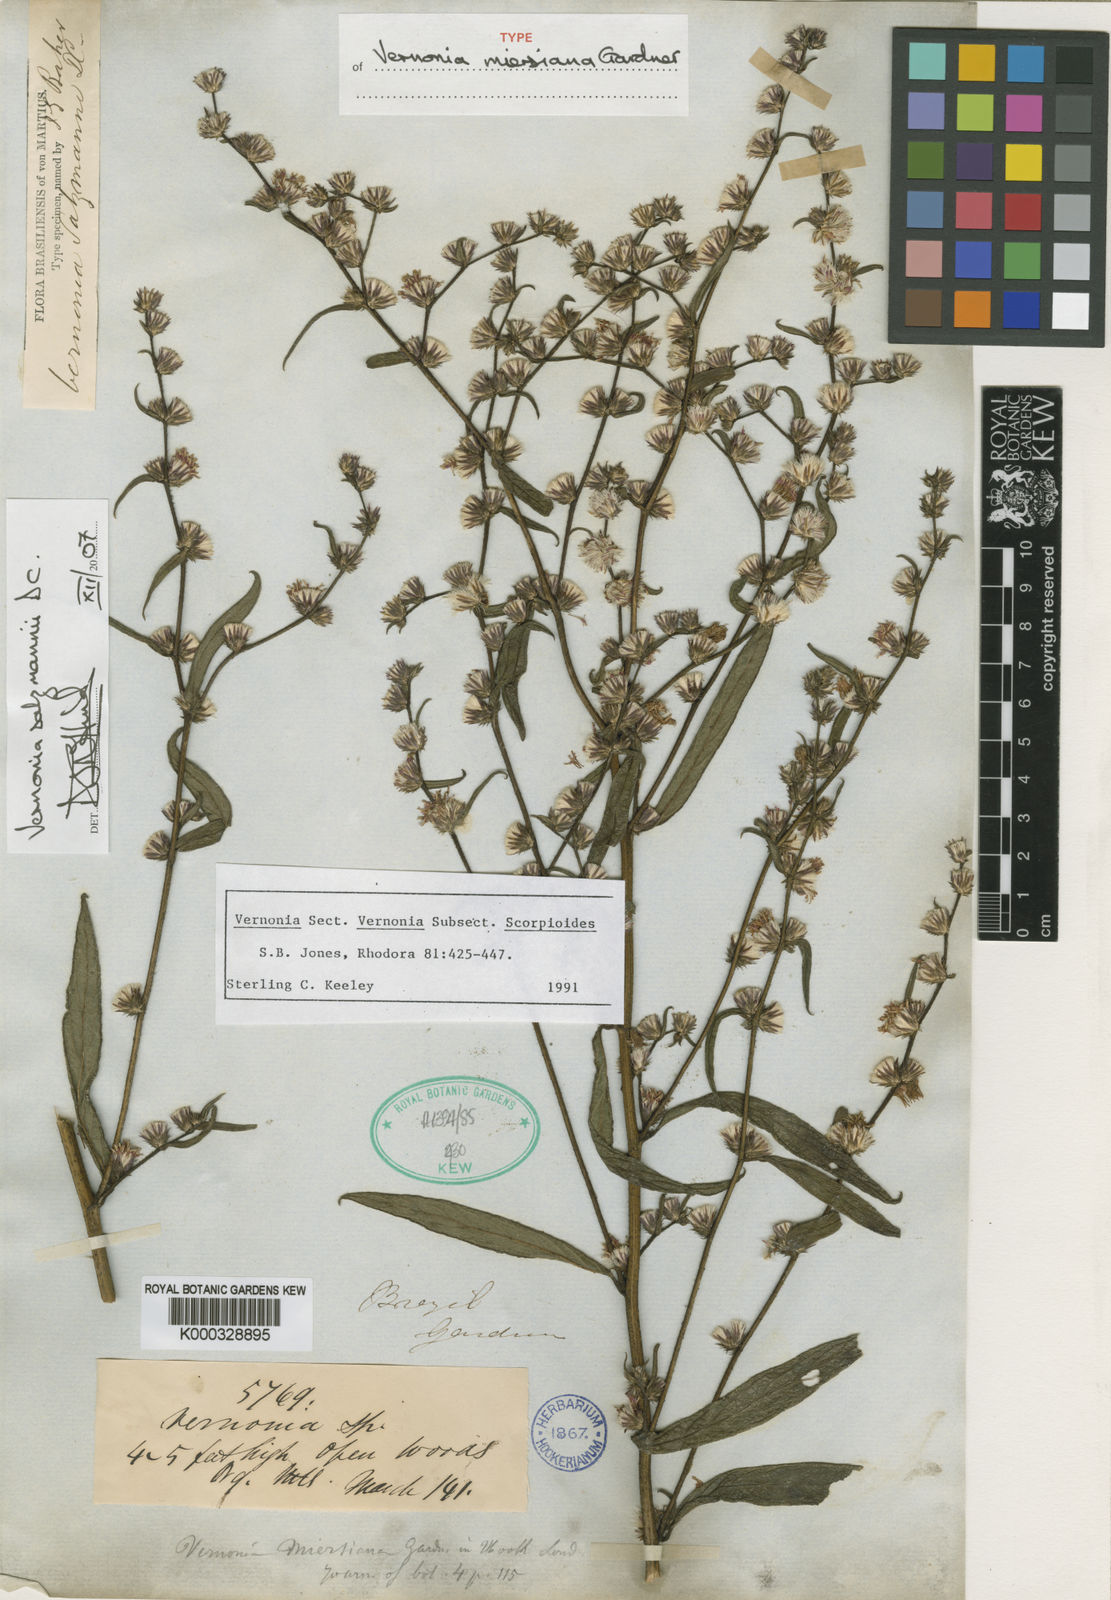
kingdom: Plantae
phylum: Tracheophyta
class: Magnoliopsida
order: Asterales
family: Asteraceae
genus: Lepidaploa
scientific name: Lepidaploa salzmannii
